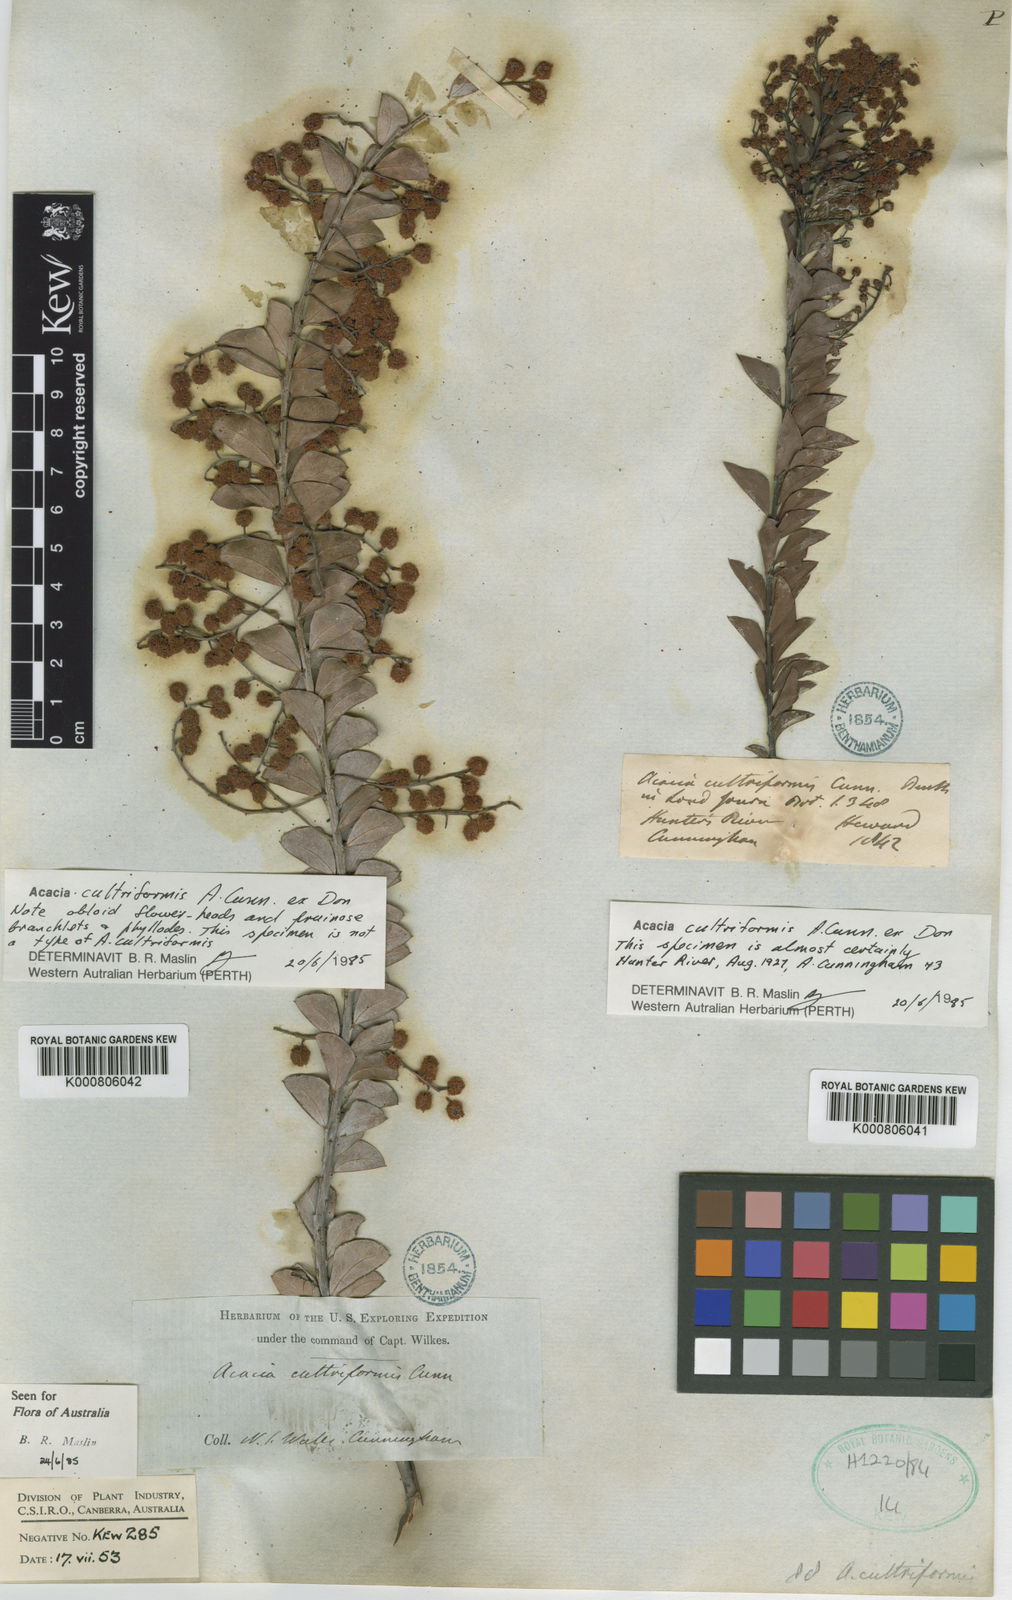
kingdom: Plantae
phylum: Tracheophyta
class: Magnoliopsida
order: Fabales
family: Fabaceae
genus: Acacia
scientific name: Acacia cultriformis
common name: Knife acacia
